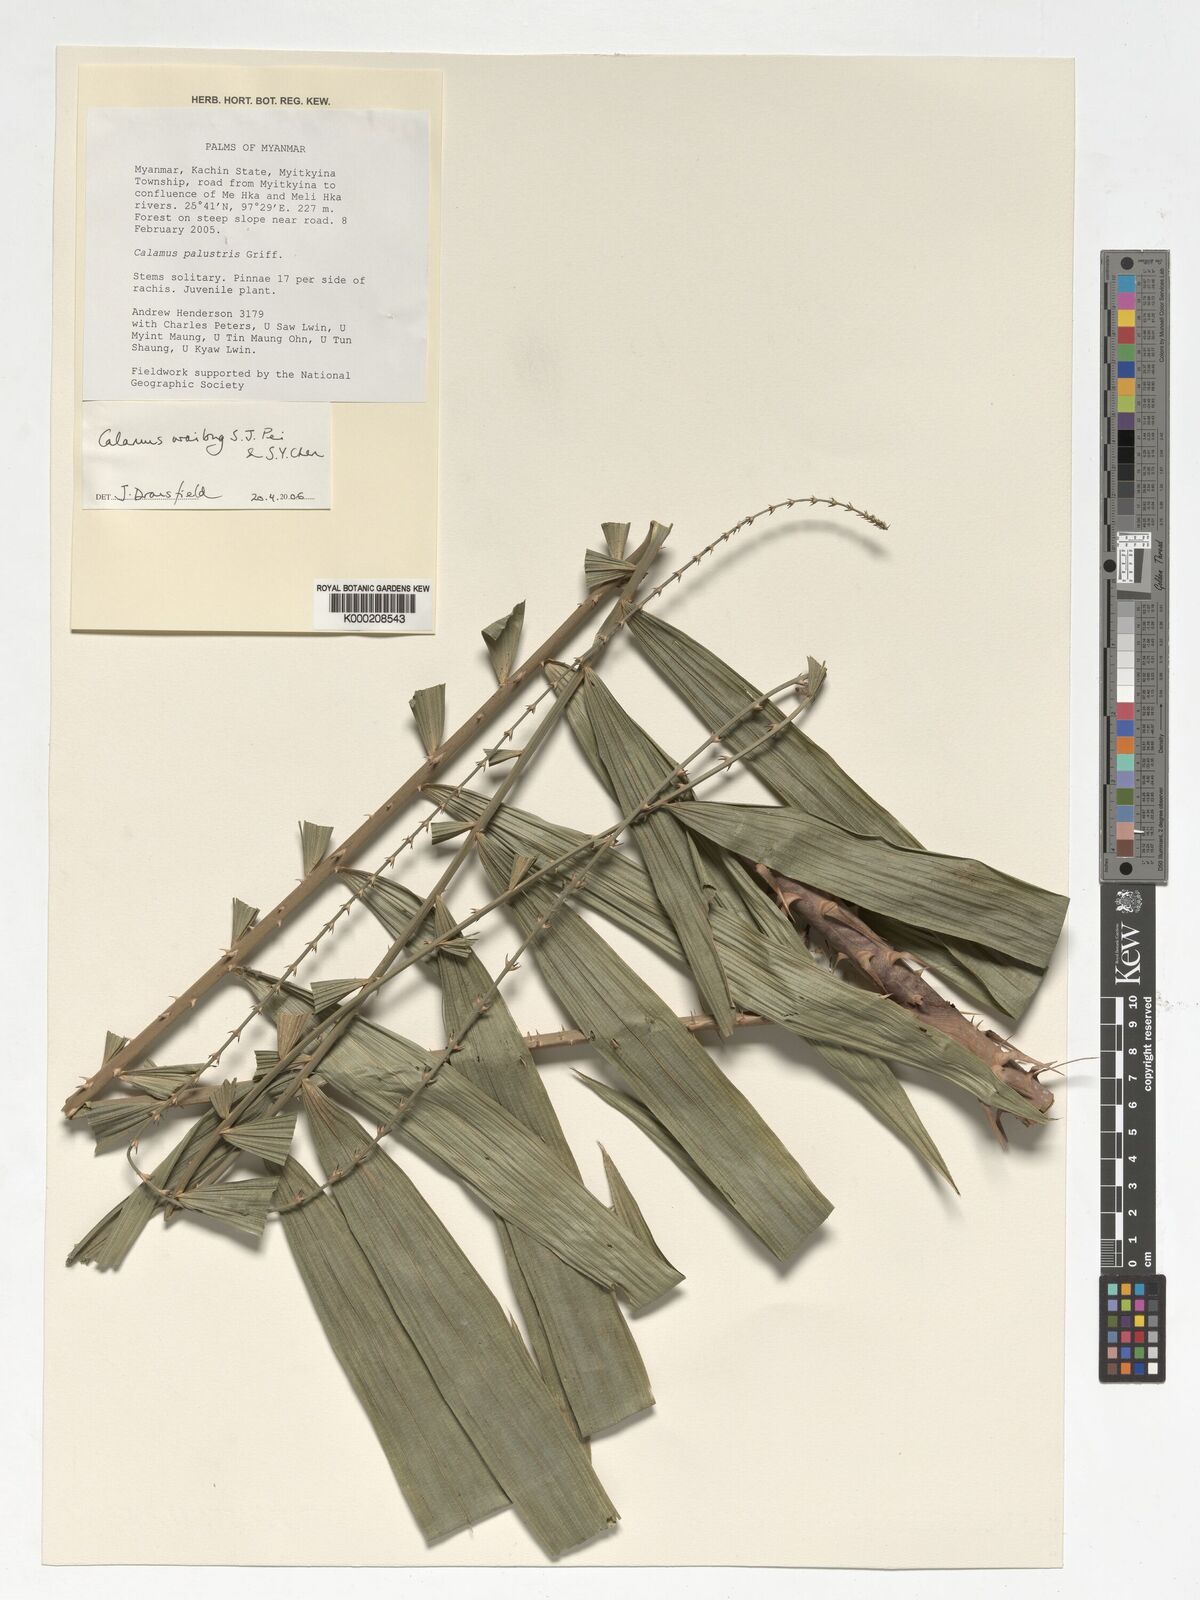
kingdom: Plantae
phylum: Tracheophyta
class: Liliopsida
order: Arecales
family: Arecaceae
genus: Calamus
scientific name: Calamus inermis
